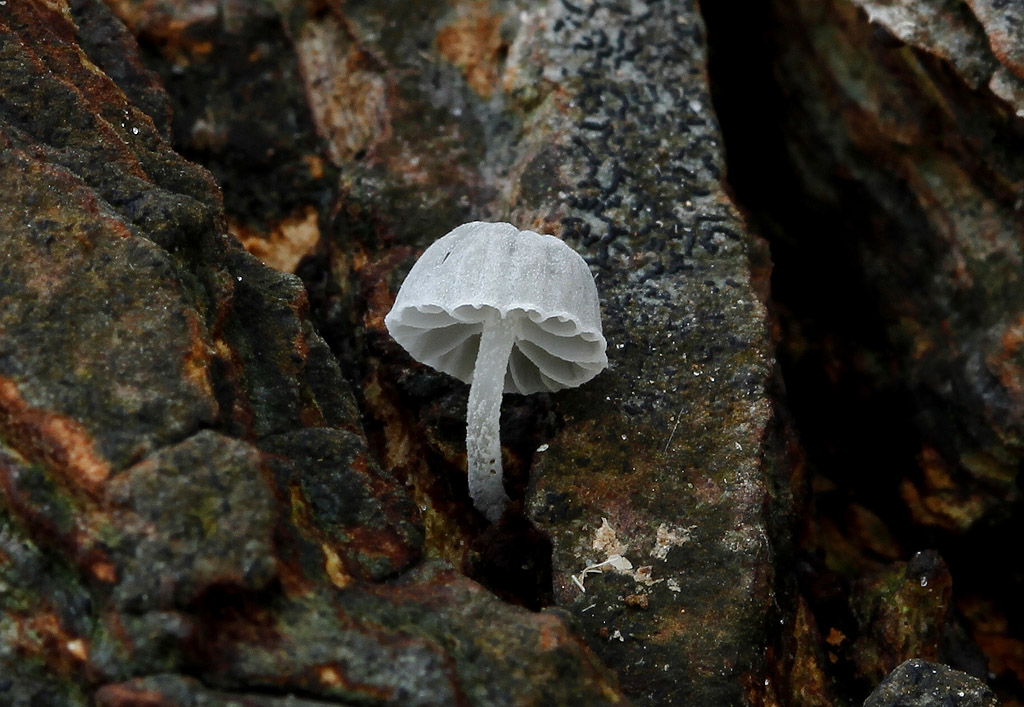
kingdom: Fungi
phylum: Basidiomycota
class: Agaricomycetes
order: Agaricales
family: Mycenaceae
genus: Mycena
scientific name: Mycena pseudocorticola
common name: gråblå bark-huesvamp
